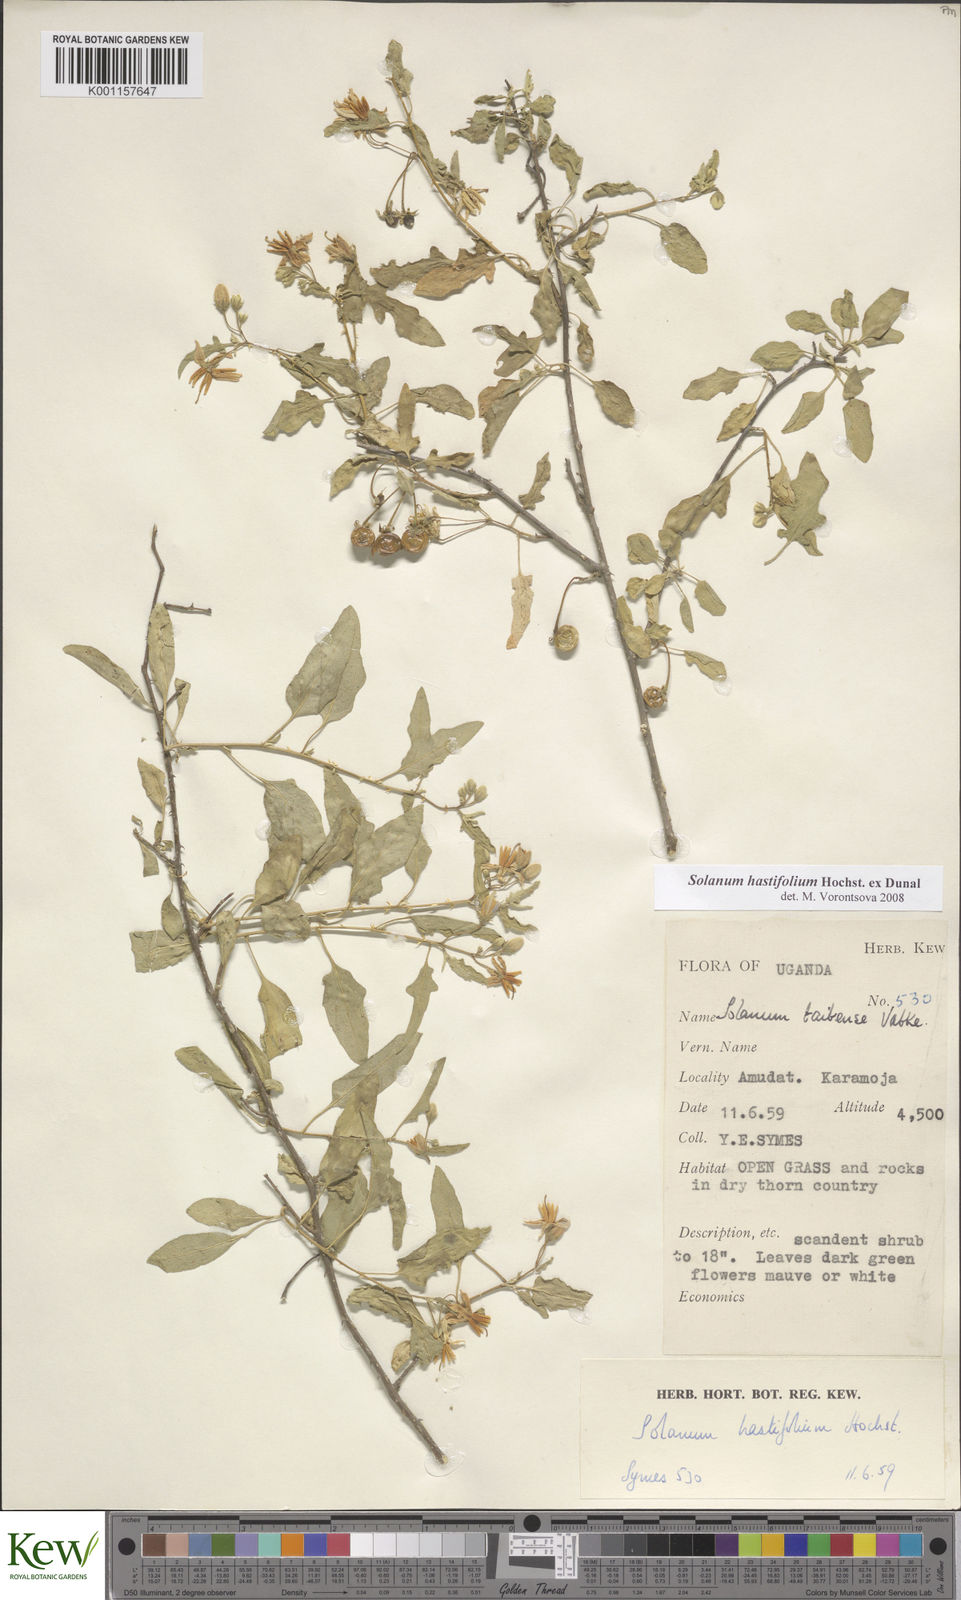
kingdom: Plantae
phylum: Tracheophyta
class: Magnoliopsida
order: Solanales
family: Solanaceae
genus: Solanum
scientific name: Solanum hastifolium
